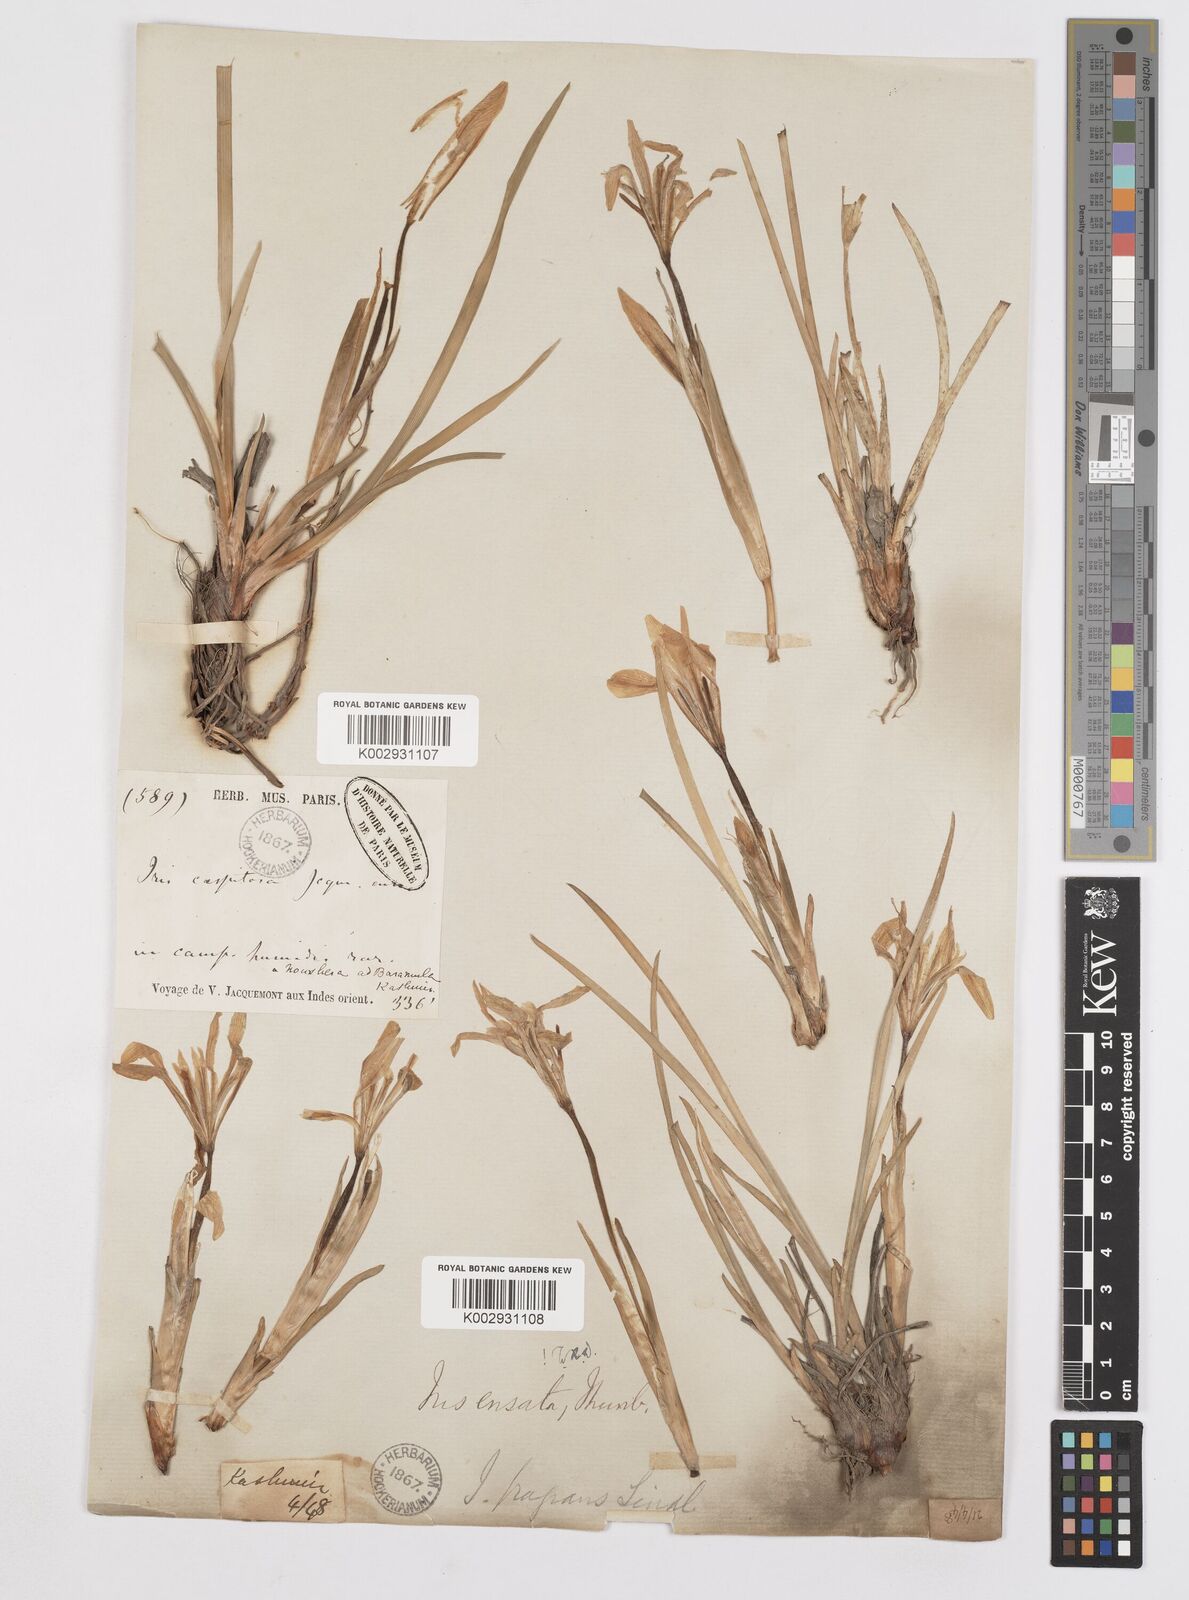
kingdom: Plantae
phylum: Tracheophyta
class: Liliopsida
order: Asparagales
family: Iridaceae
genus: Iris
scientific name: Iris ensata
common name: Beaked iris
